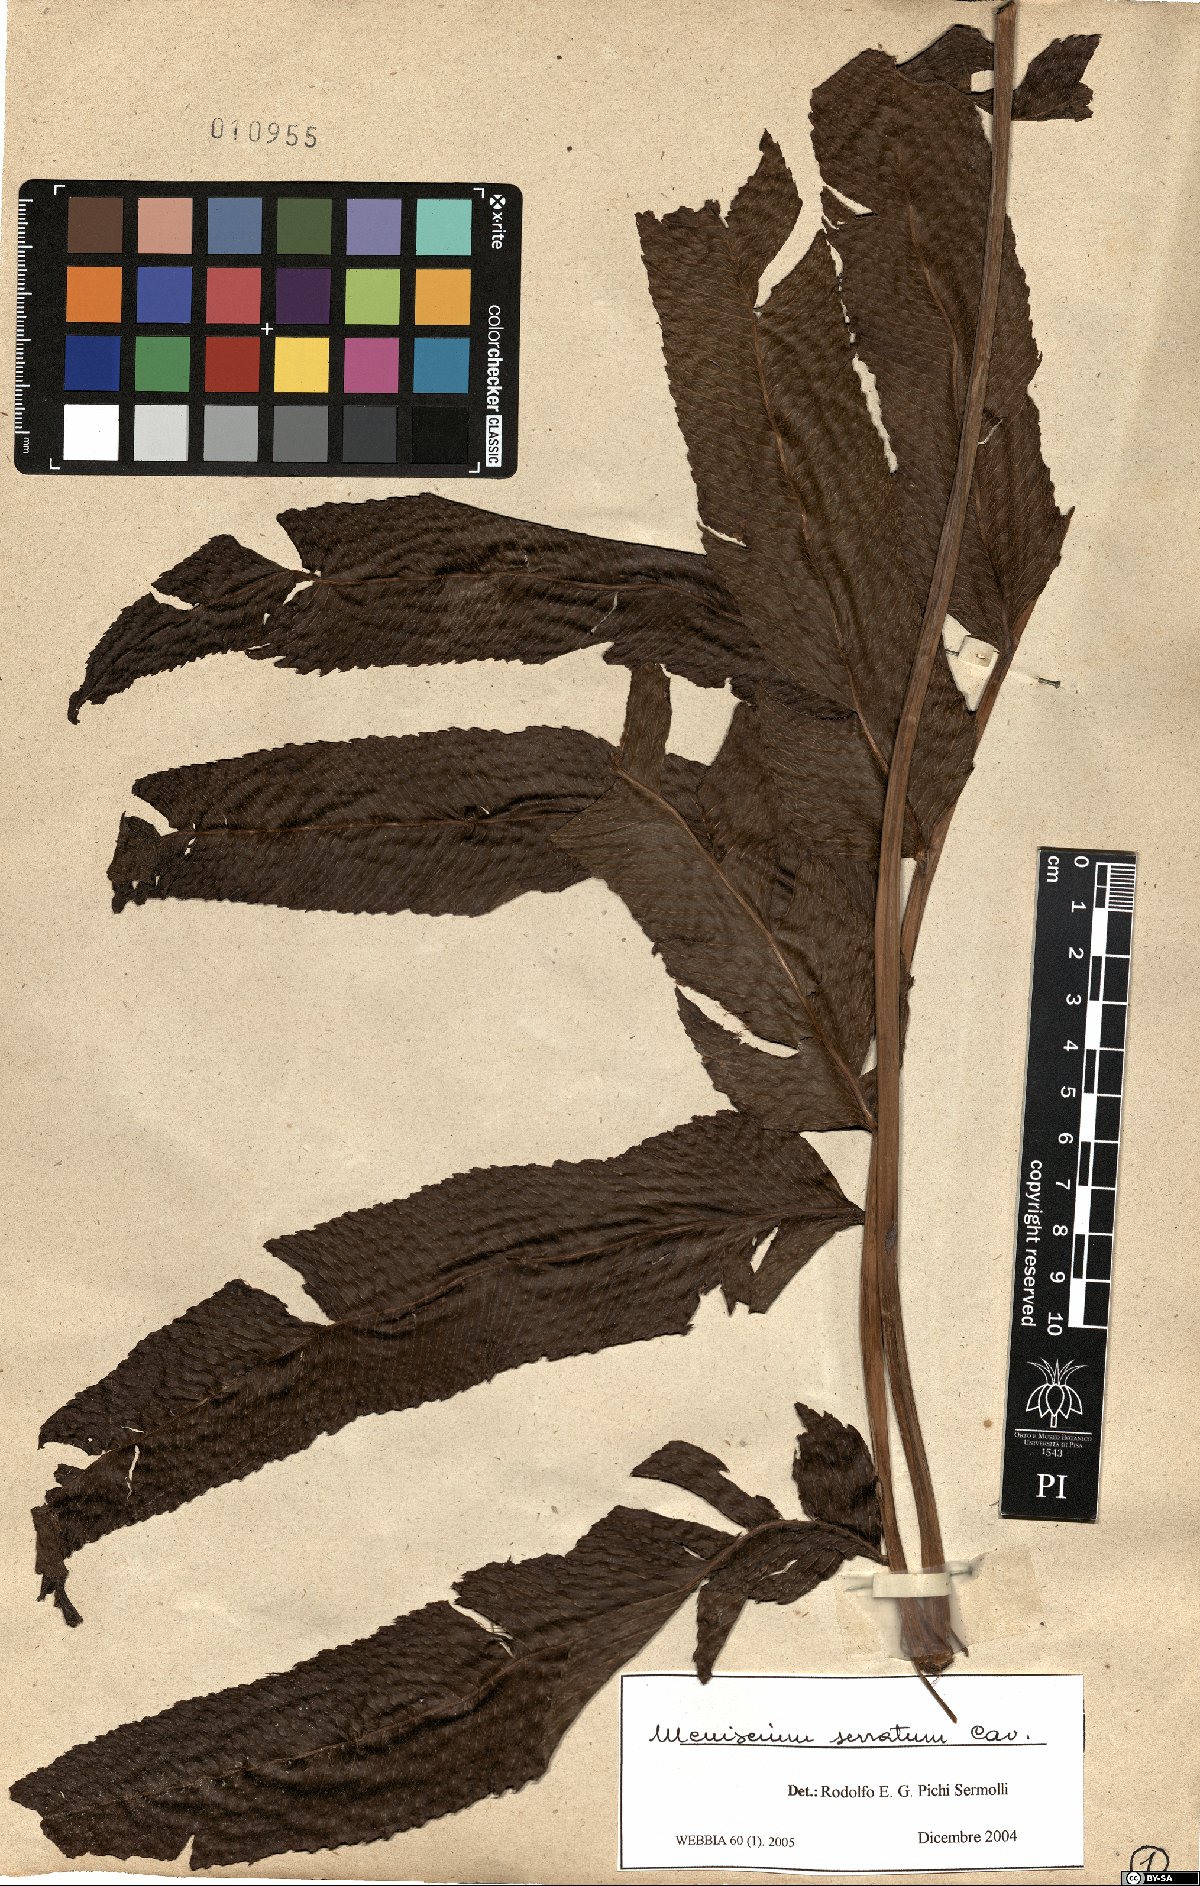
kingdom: Plantae
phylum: Tracheophyta
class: Polypodiopsida
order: Polypodiales
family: Thelypteridaceae
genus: Meniscium
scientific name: Meniscium serratum
